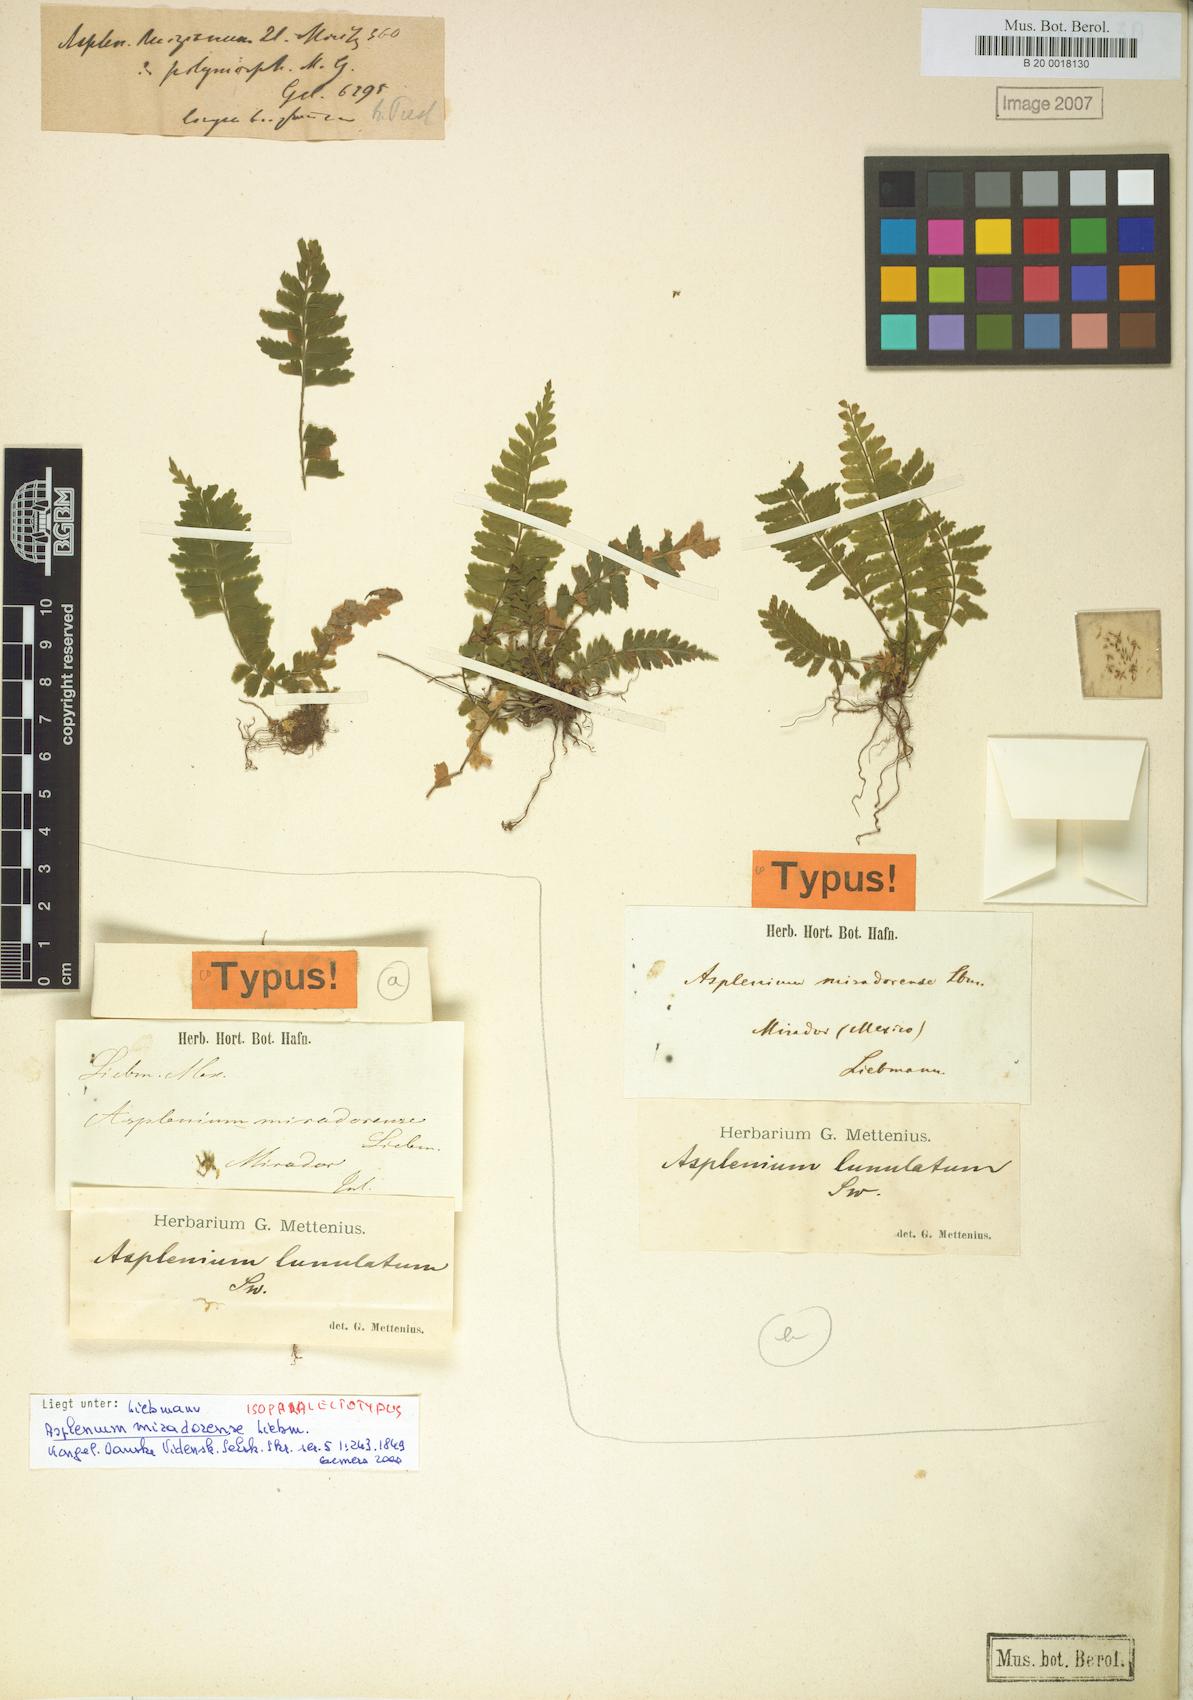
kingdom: Plantae
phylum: Tracheophyta
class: Polypodiopsida
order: Polypodiales
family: Aspleniaceae
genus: Asplenium
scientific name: Asplenium miradorense
